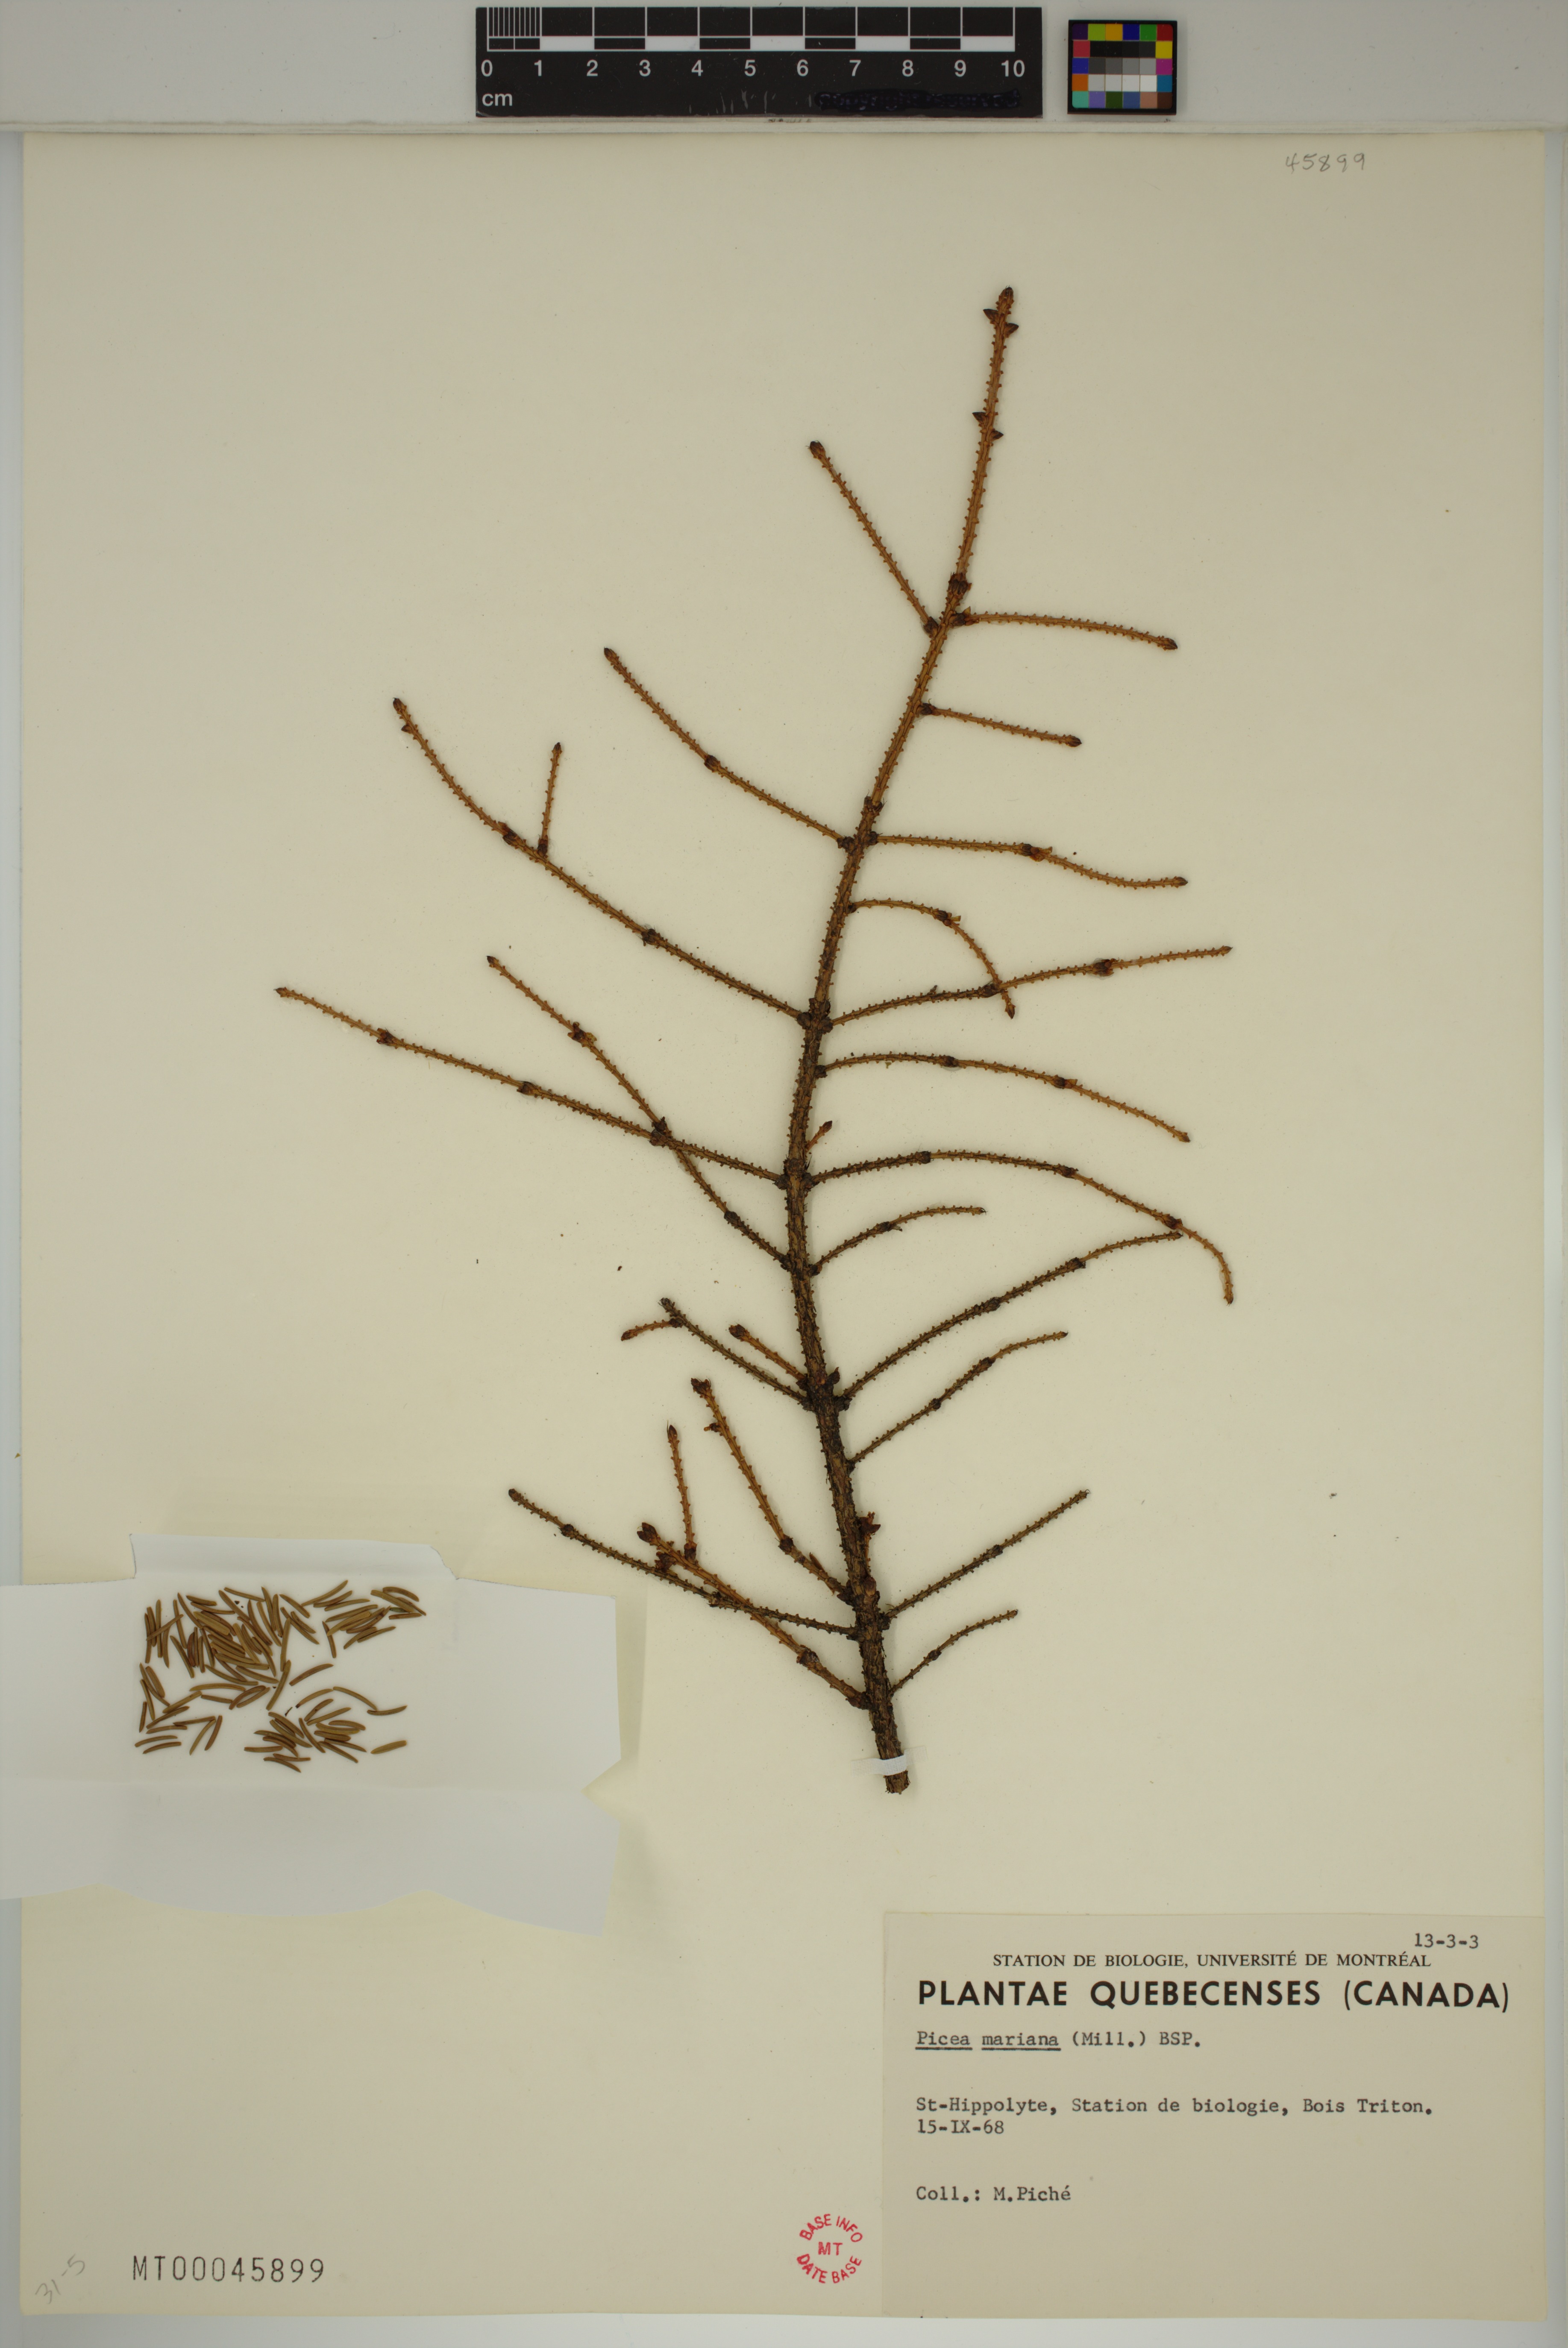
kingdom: Plantae
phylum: Tracheophyta
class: Pinopsida
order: Pinales
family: Pinaceae
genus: Picea
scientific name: Picea mariana
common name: Black spruce
